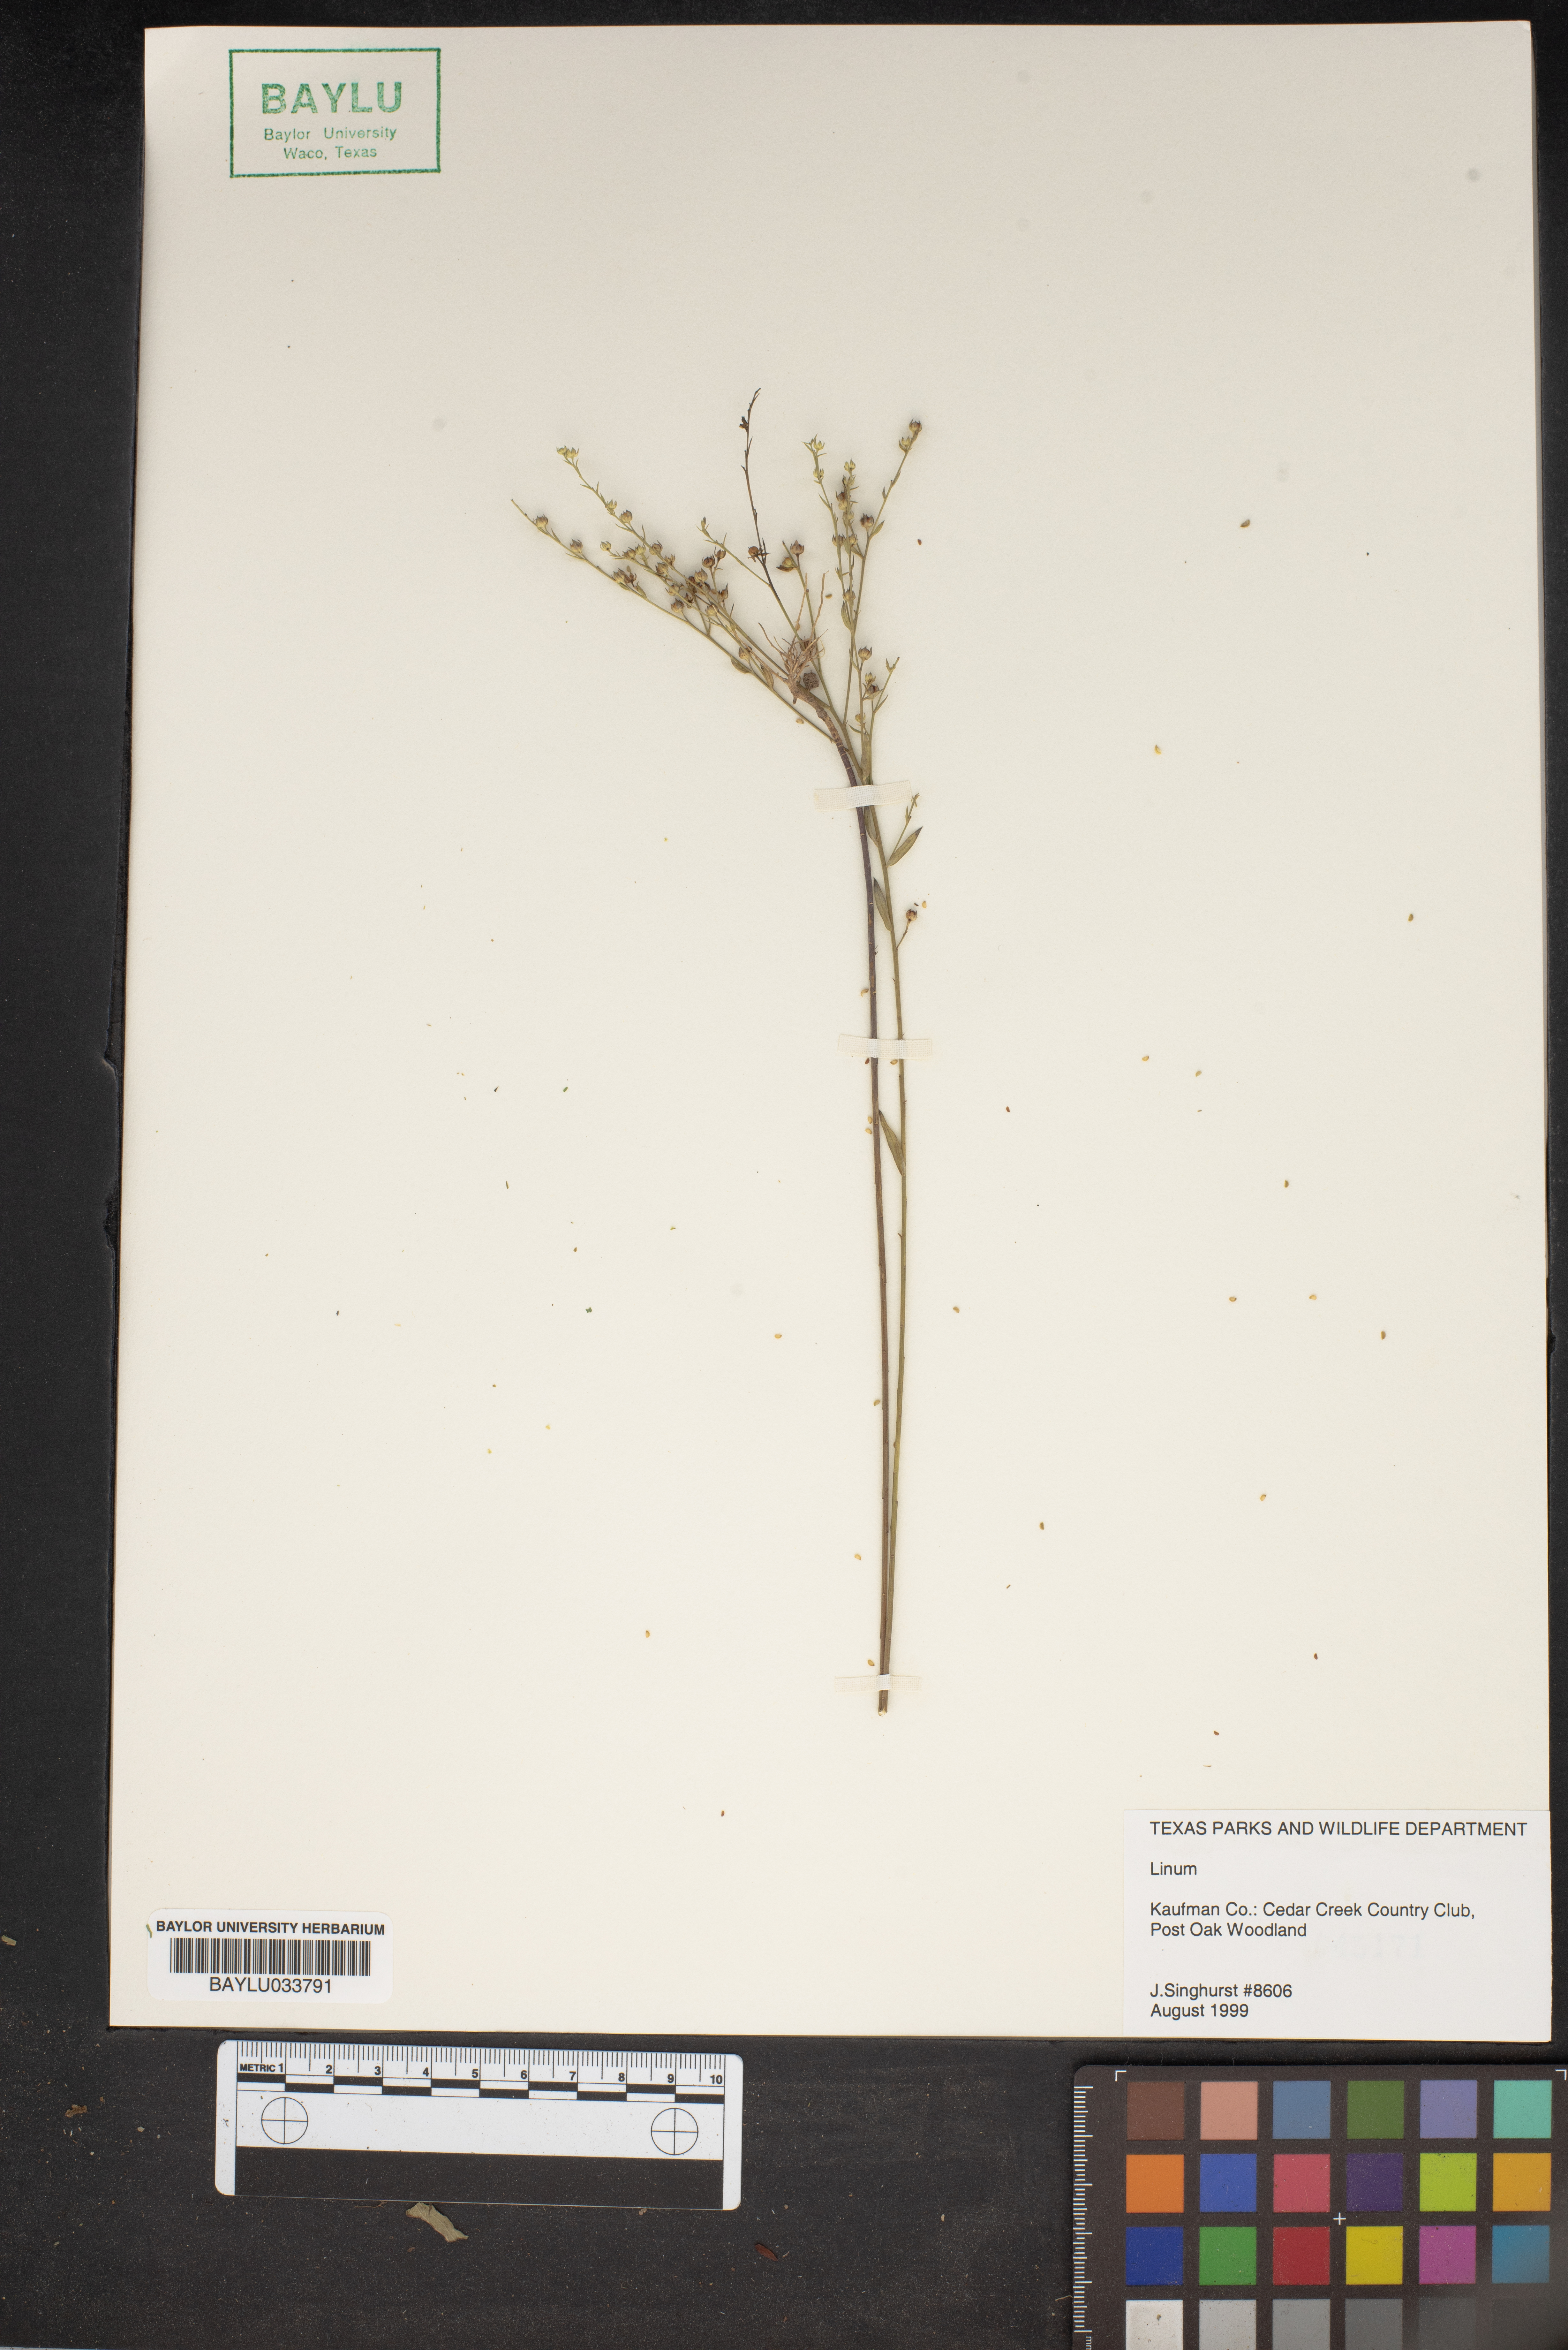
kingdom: Plantae
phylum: Tracheophyta
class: Magnoliopsida
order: Malpighiales
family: Linaceae
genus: Linum
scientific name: Linum
